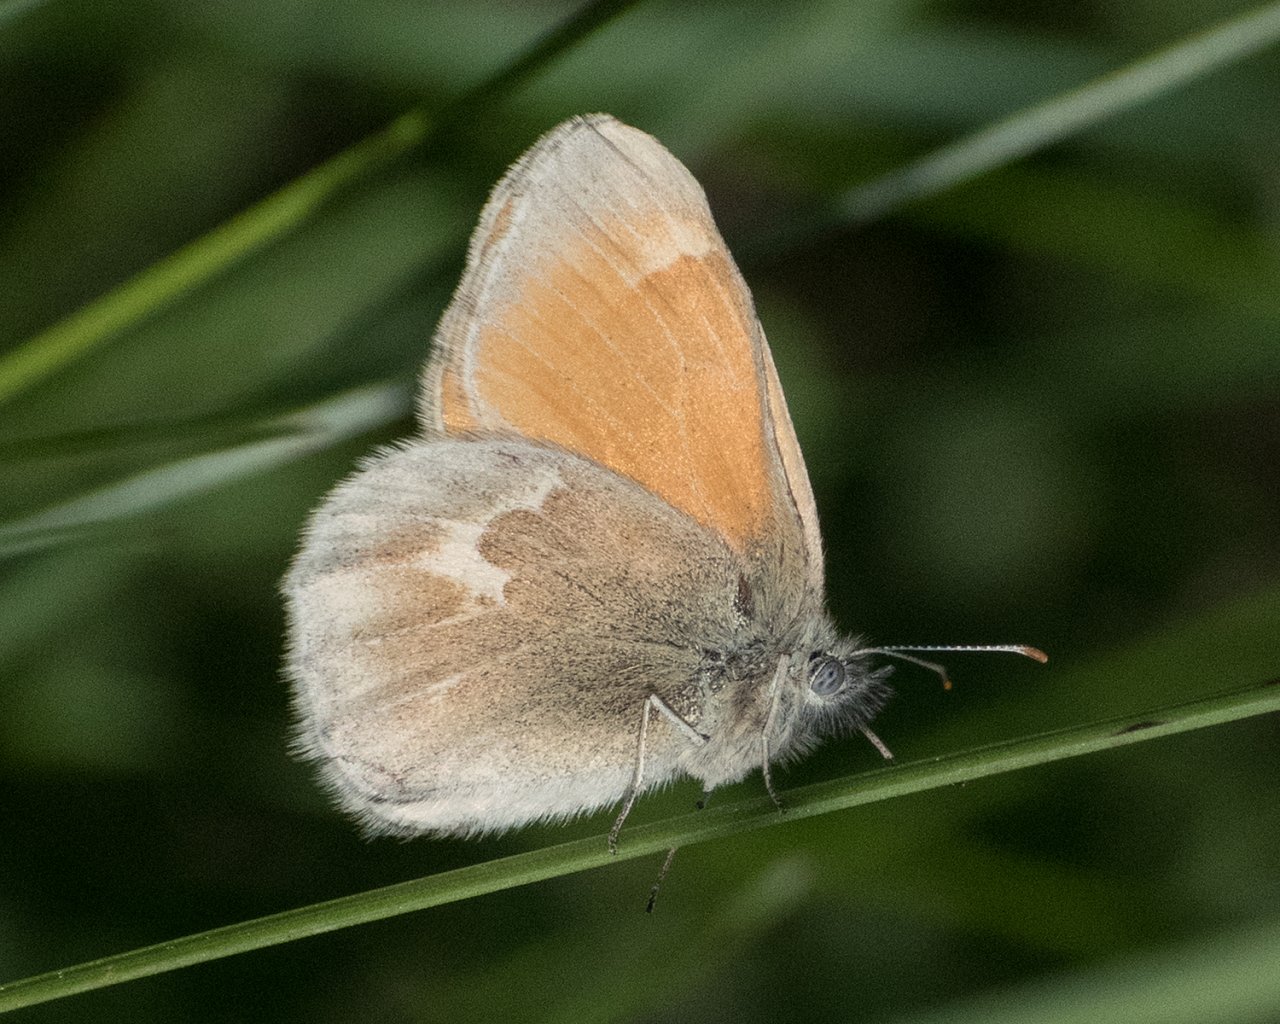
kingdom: Animalia
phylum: Arthropoda
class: Insecta
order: Lepidoptera
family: Nymphalidae
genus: Coenonympha
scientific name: Coenonympha tullia
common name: Large Heath
